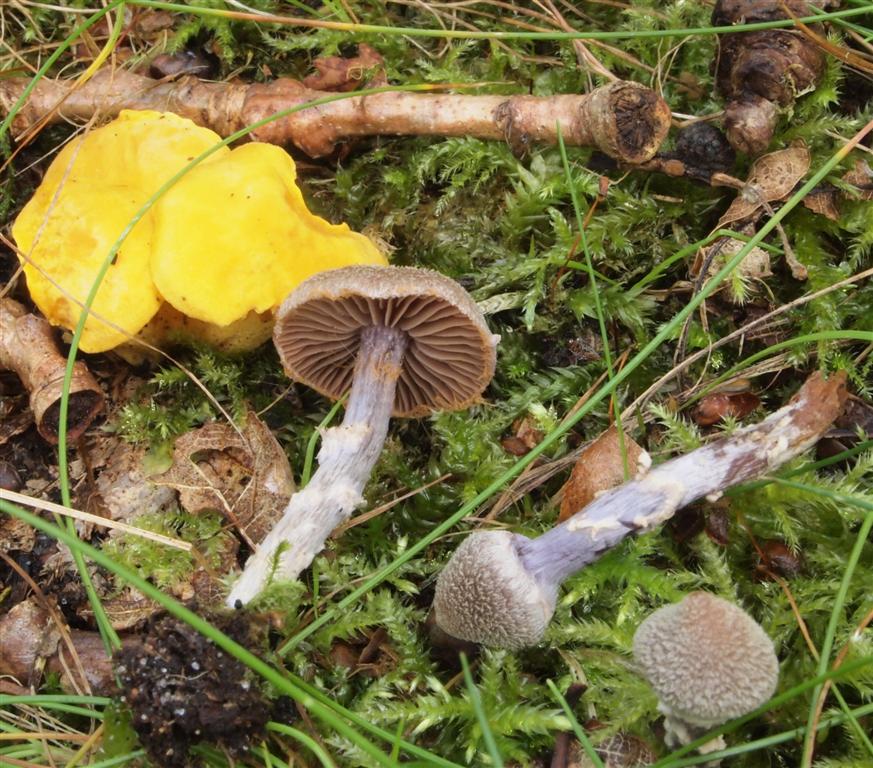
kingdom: Fungi
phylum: Basidiomycota
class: Agaricomycetes
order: Agaricales
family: Cortinariaceae
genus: Cortinarius
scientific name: Cortinarius
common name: pelargonie-slørhat
